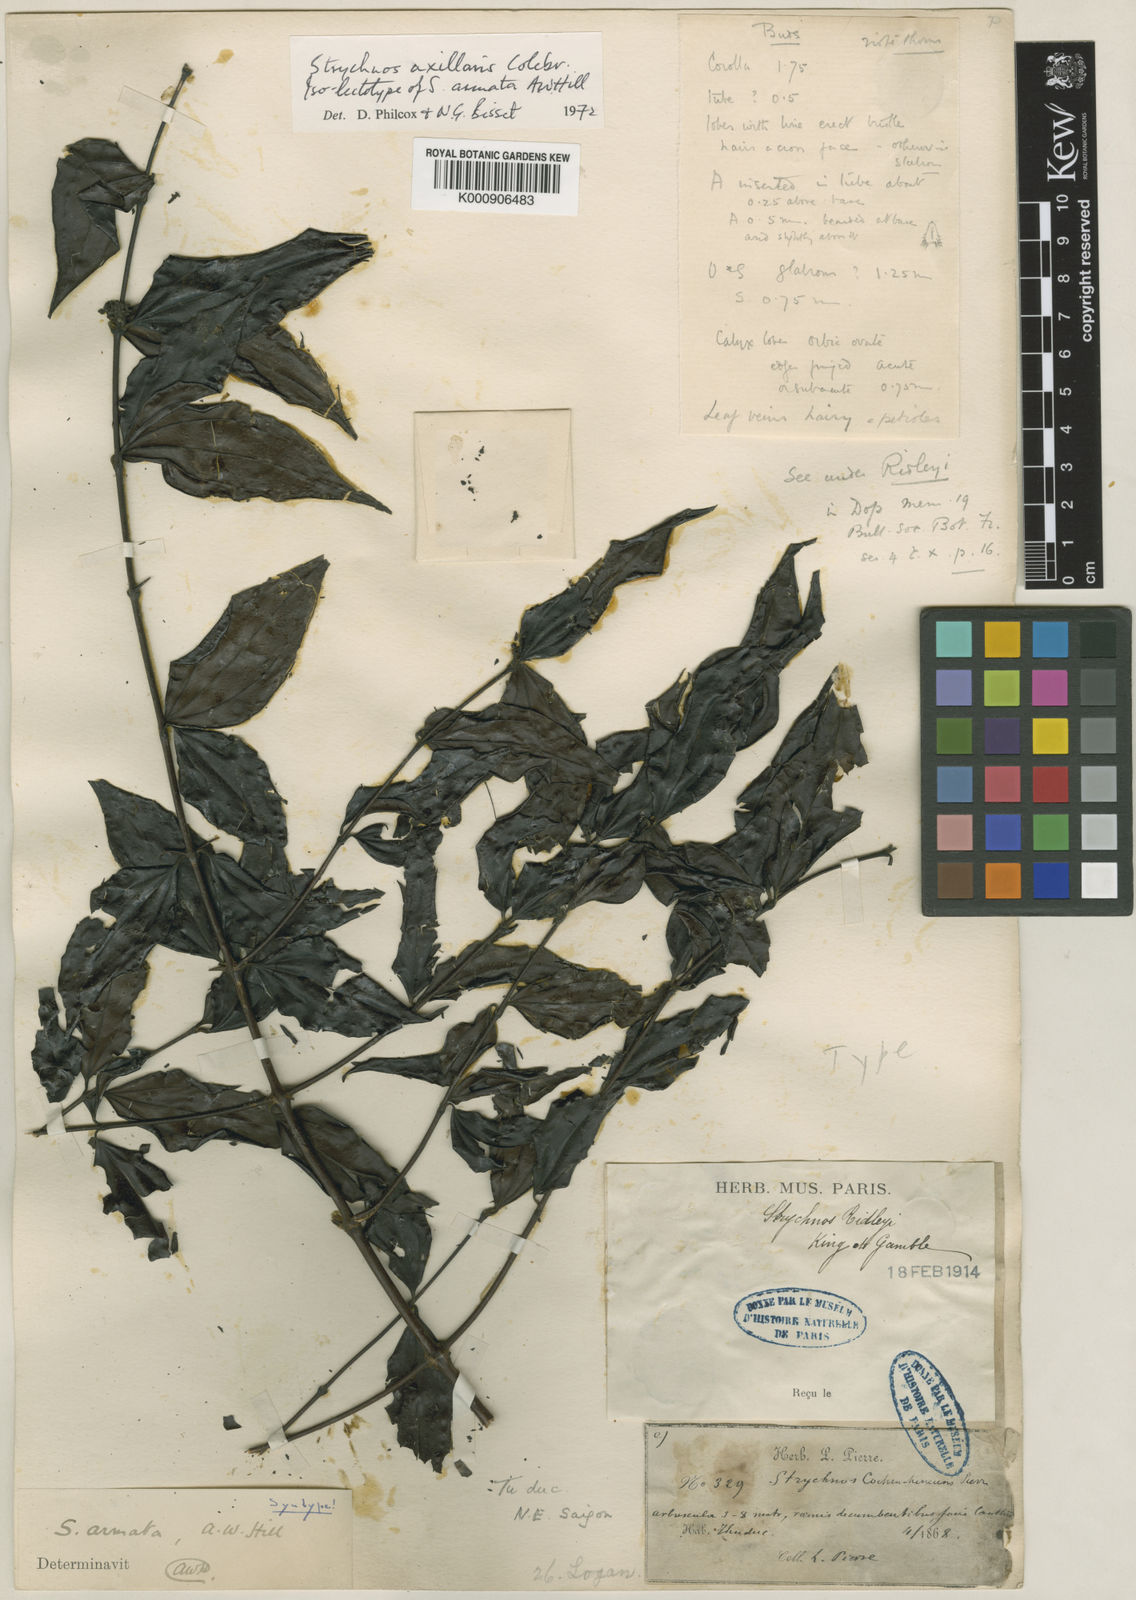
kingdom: Plantae
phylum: Tracheophyta
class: Magnoliopsida
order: Gentianales
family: Loganiaceae
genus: Strychnos
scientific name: Strychnos axillaris
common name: Strychninebush
